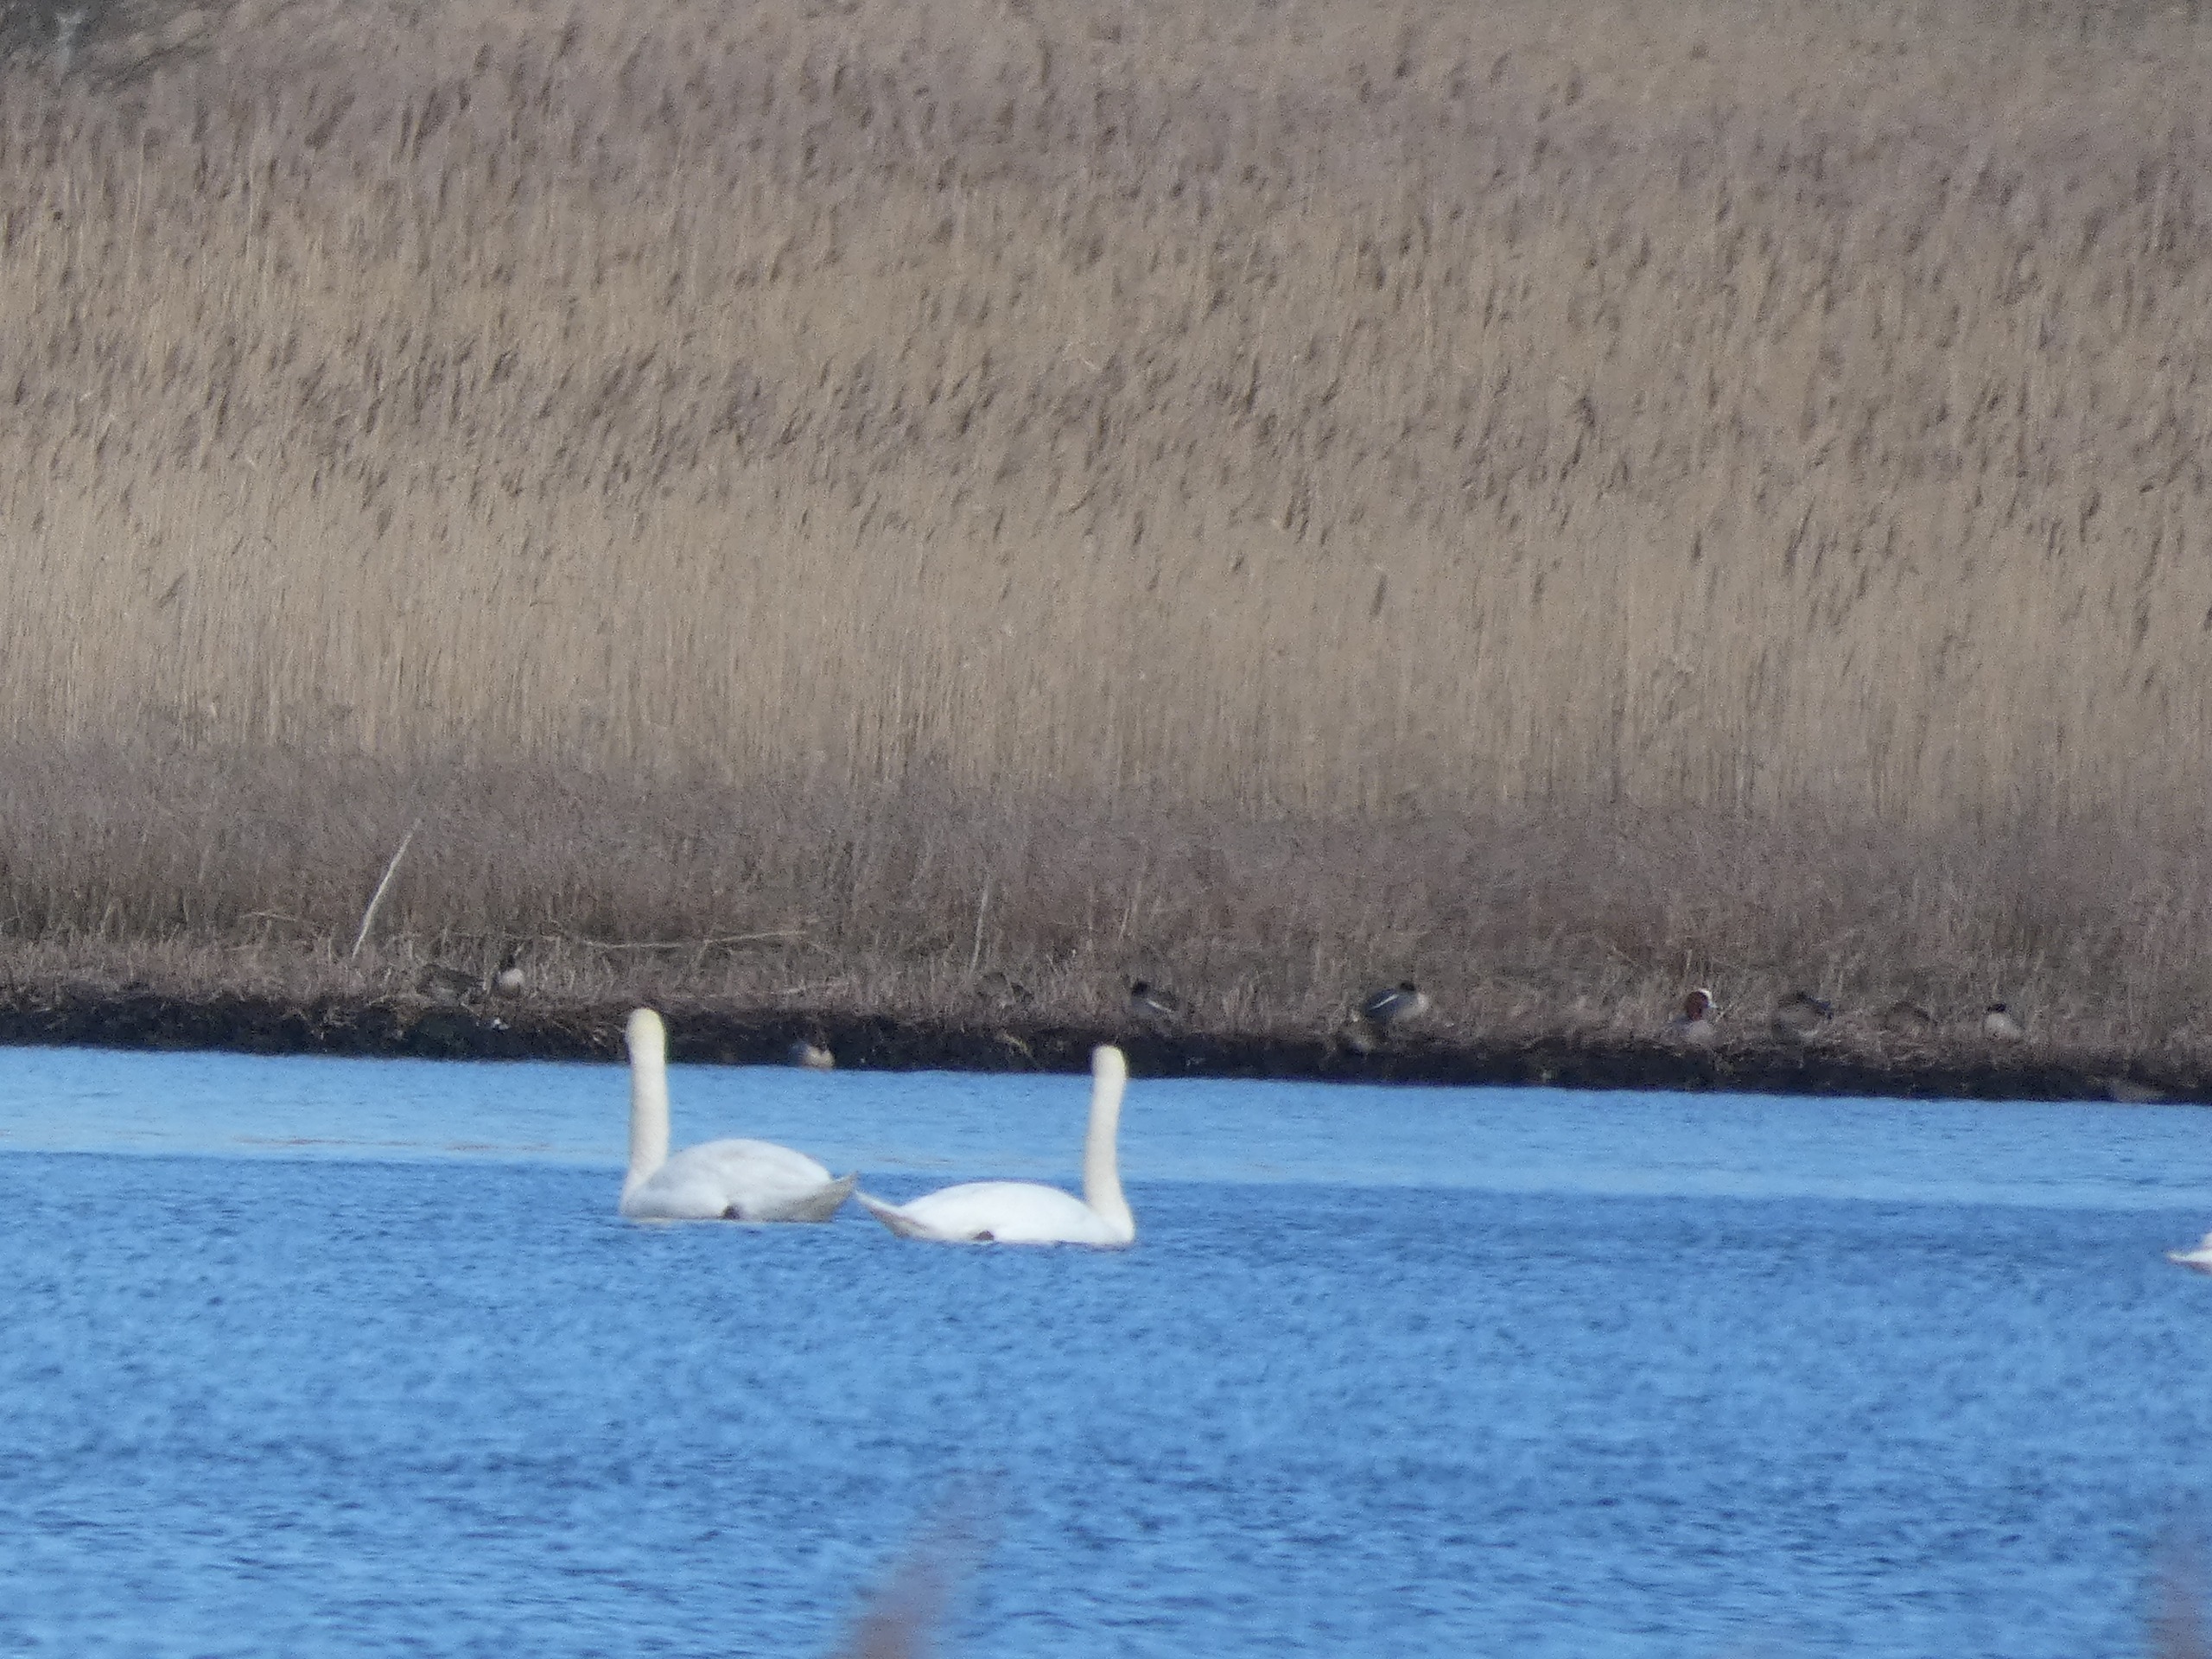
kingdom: Animalia
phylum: Chordata
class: Aves
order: Anseriformes
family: Anatidae
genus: Mareca
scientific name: Mareca penelope
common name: Pibeand
